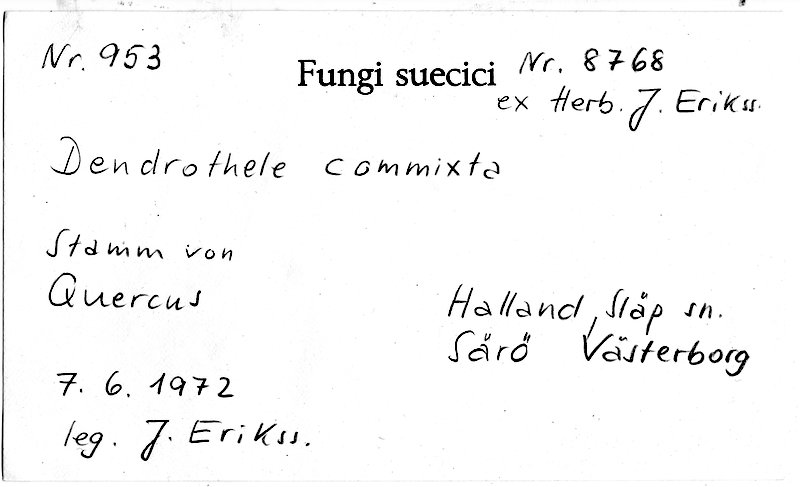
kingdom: Plantae
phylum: Tracheophyta
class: Magnoliopsida
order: Fagales
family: Fagaceae
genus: Quercus
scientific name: Quercus
